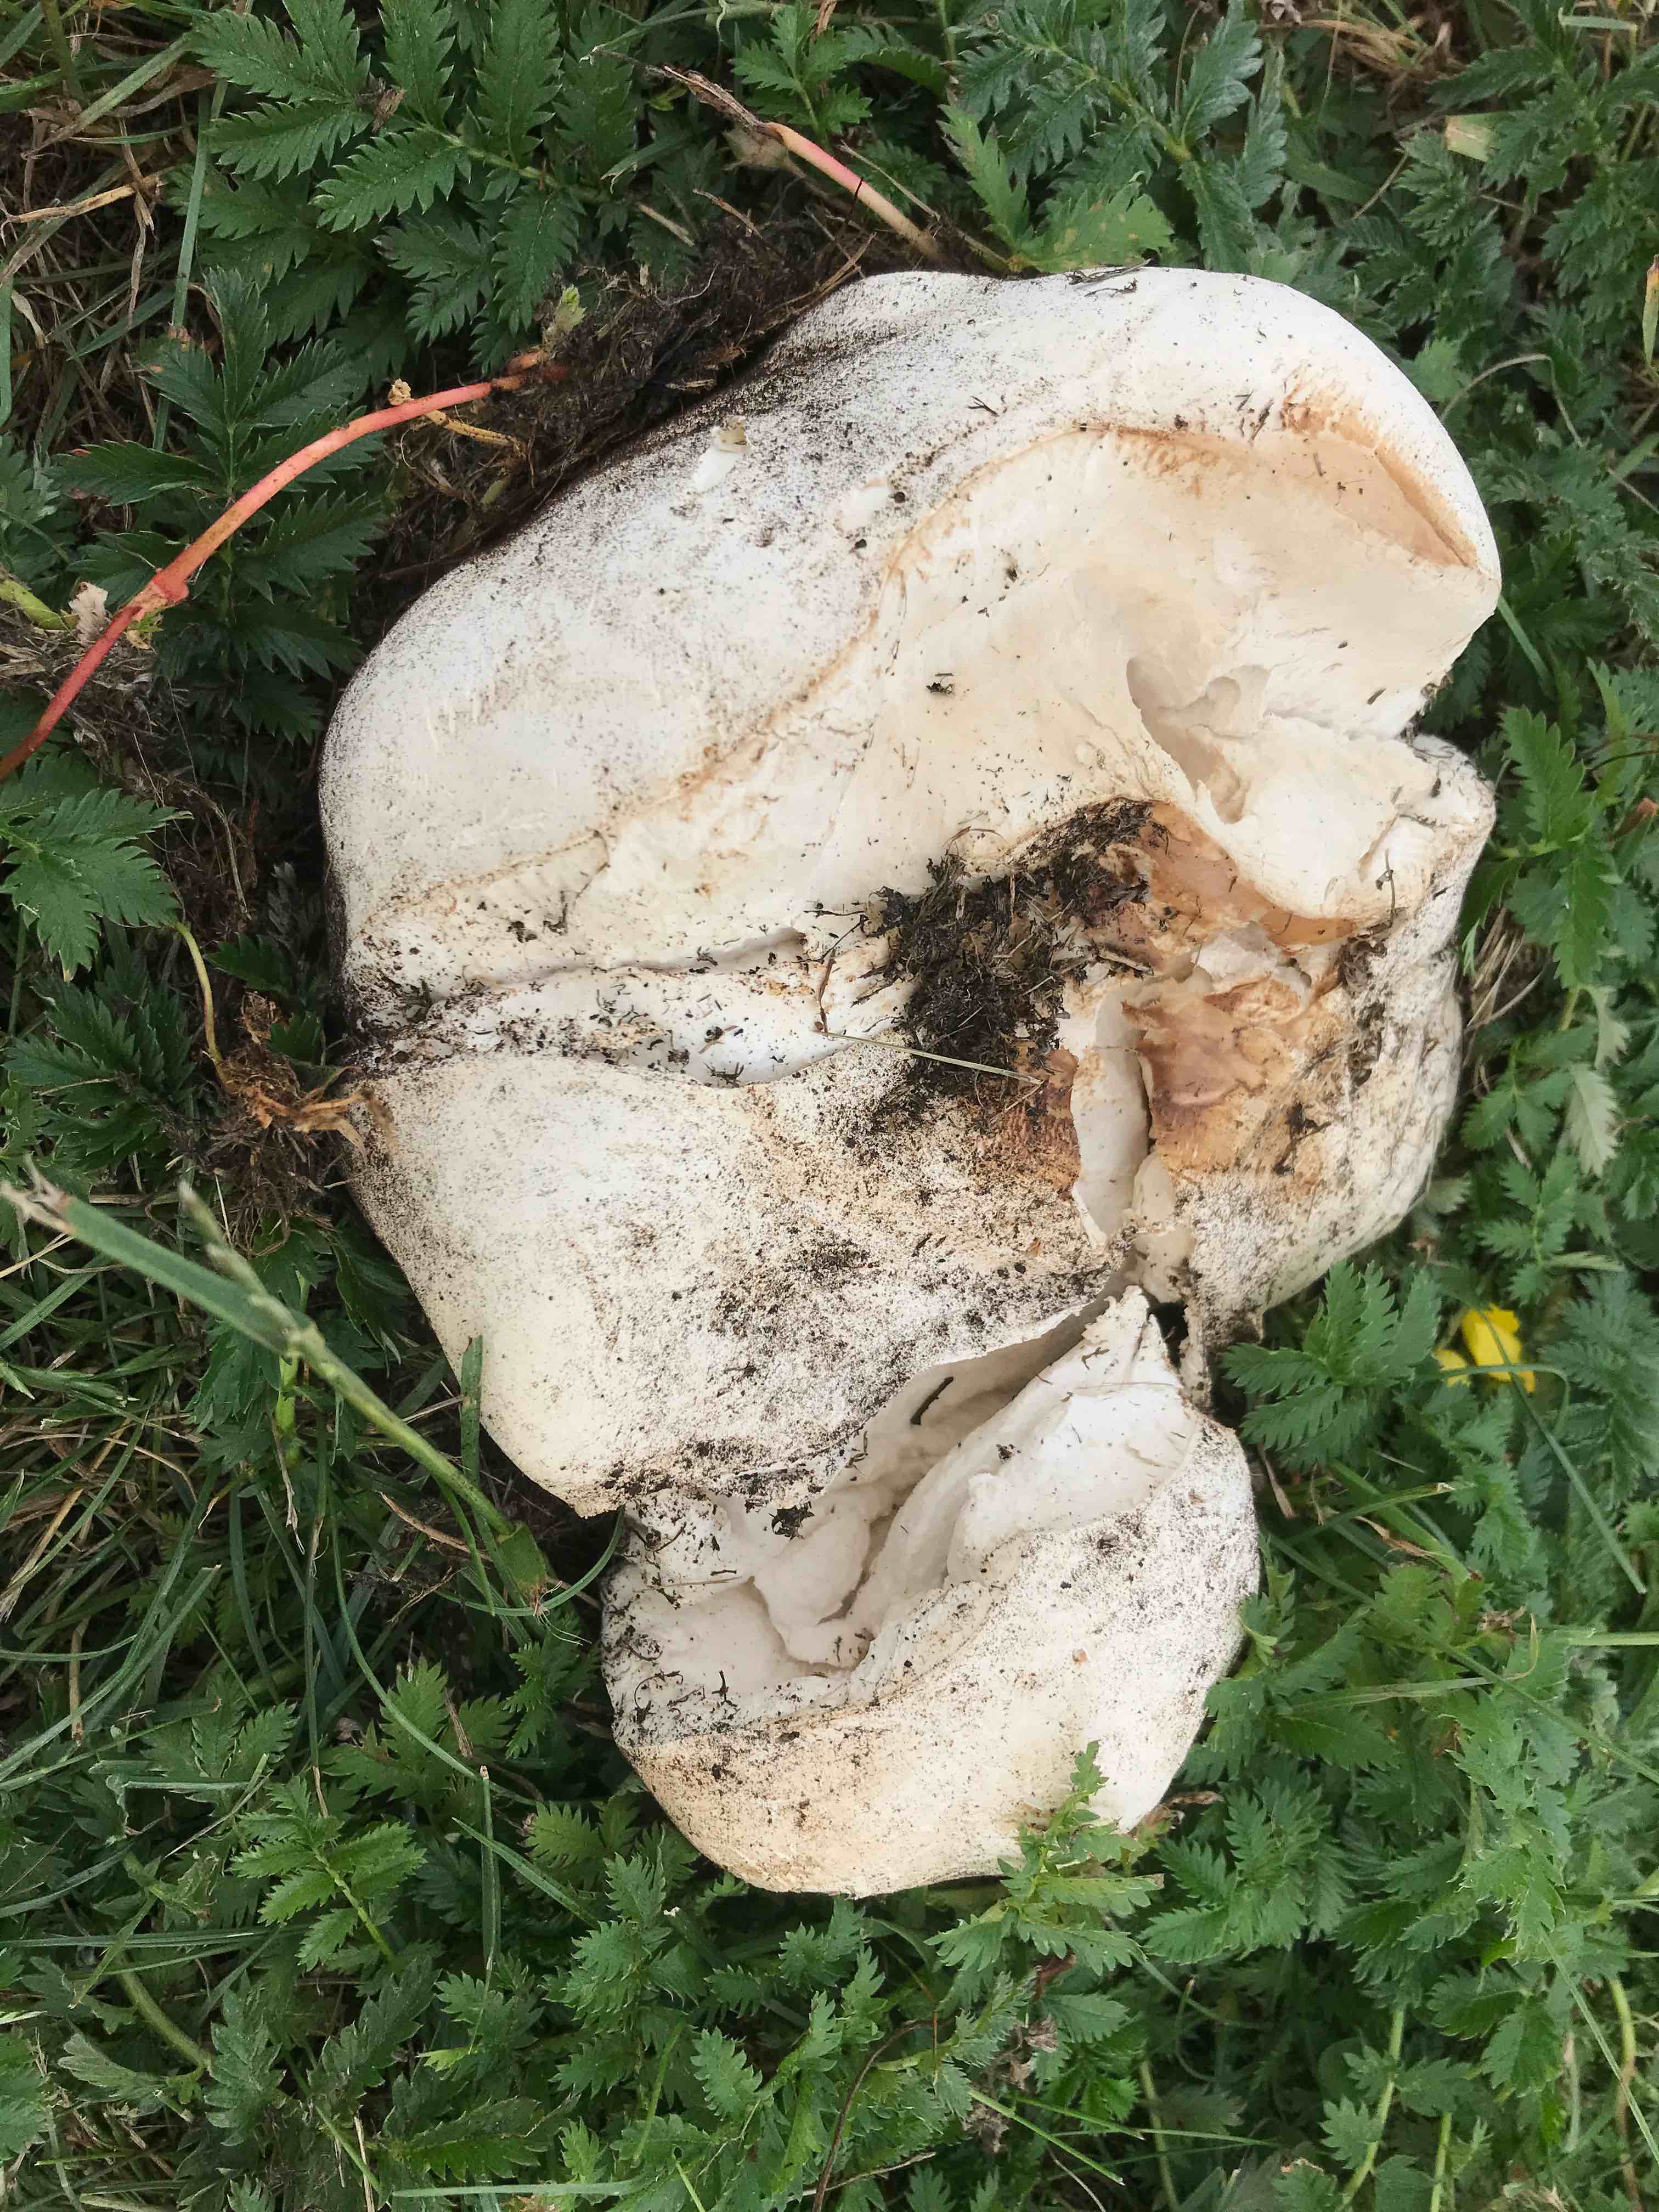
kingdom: Fungi
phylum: Basidiomycota
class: Agaricomycetes
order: Agaricales
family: Lycoperdaceae
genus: Calvatia
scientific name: Calvatia gigantea
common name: kæmpestøvbold
